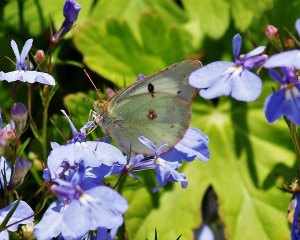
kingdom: Animalia
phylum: Arthropoda
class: Insecta
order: Lepidoptera
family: Pieridae
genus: Colias
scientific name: Colias philodice
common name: Clouded Sulphur
